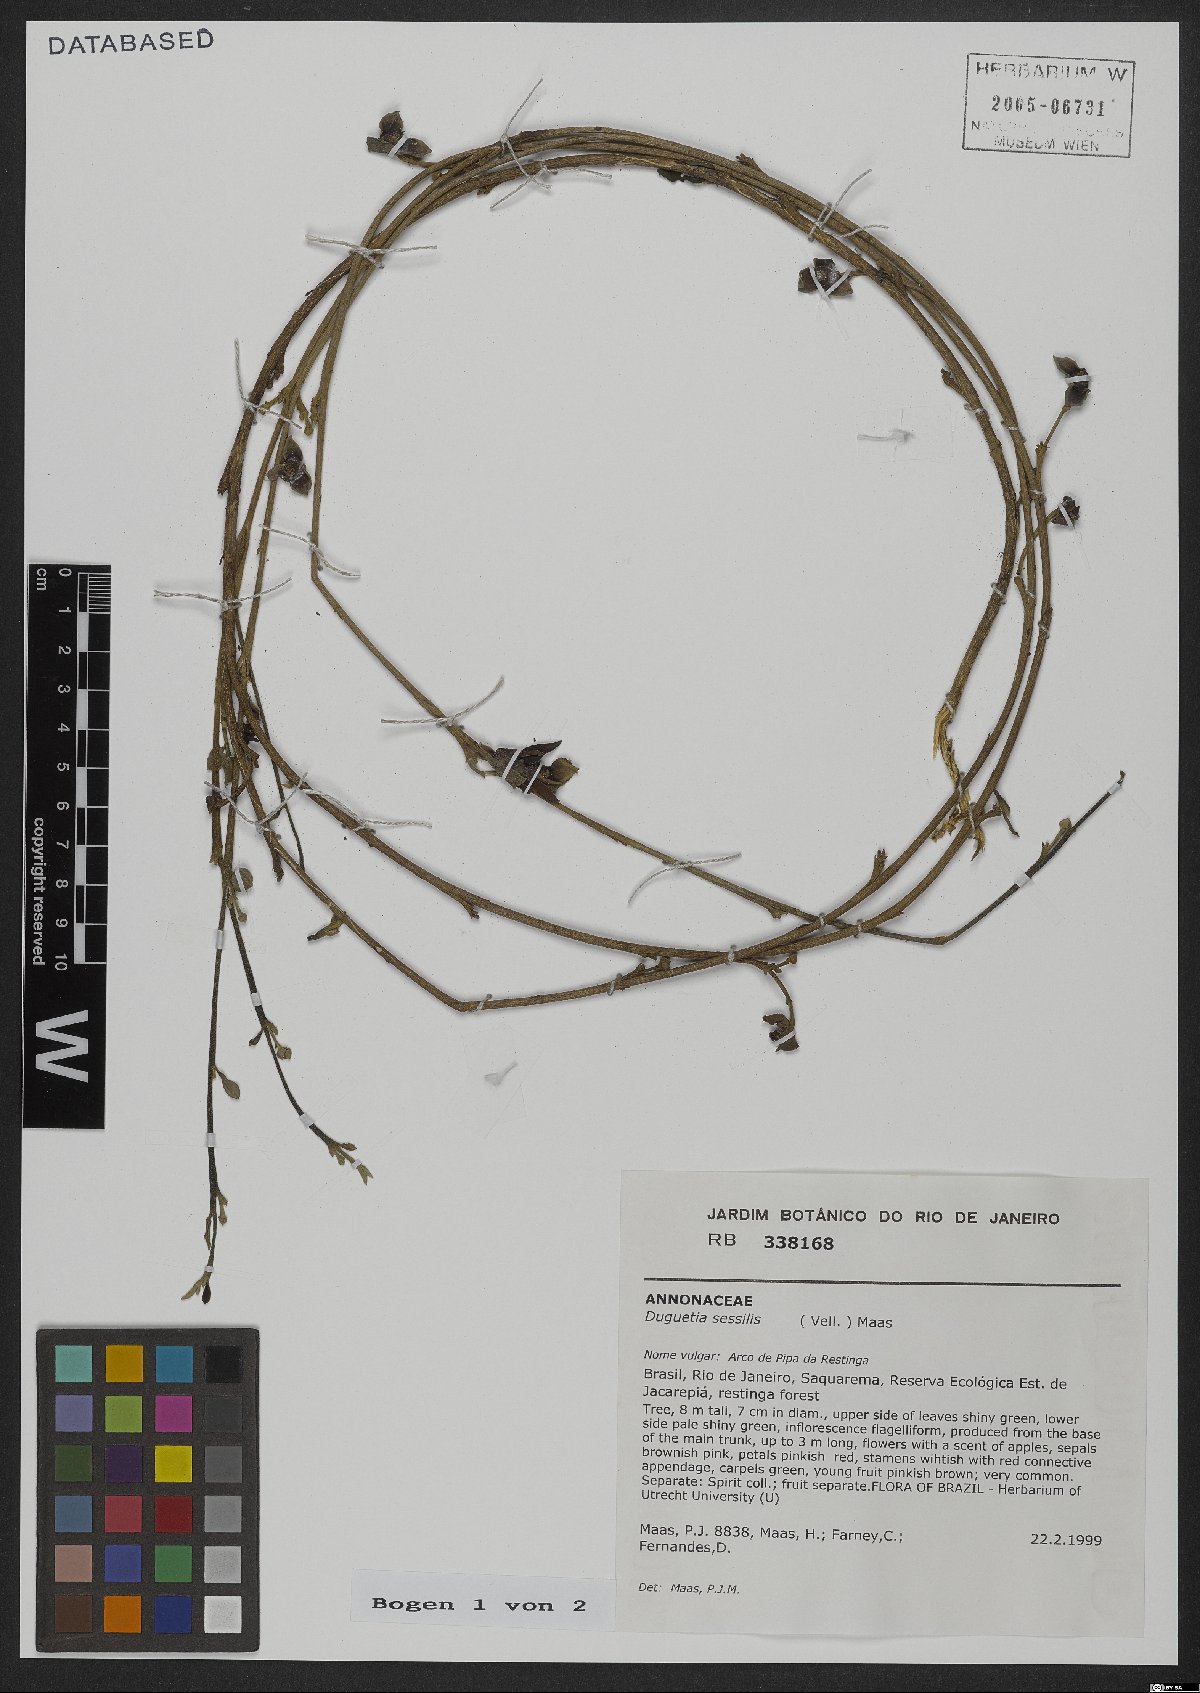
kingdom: Plantae
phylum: Tracheophyta
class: Magnoliopsida
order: Magnoliales
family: Annonaceae
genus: Duguetia
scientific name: Duguetia sessilis
